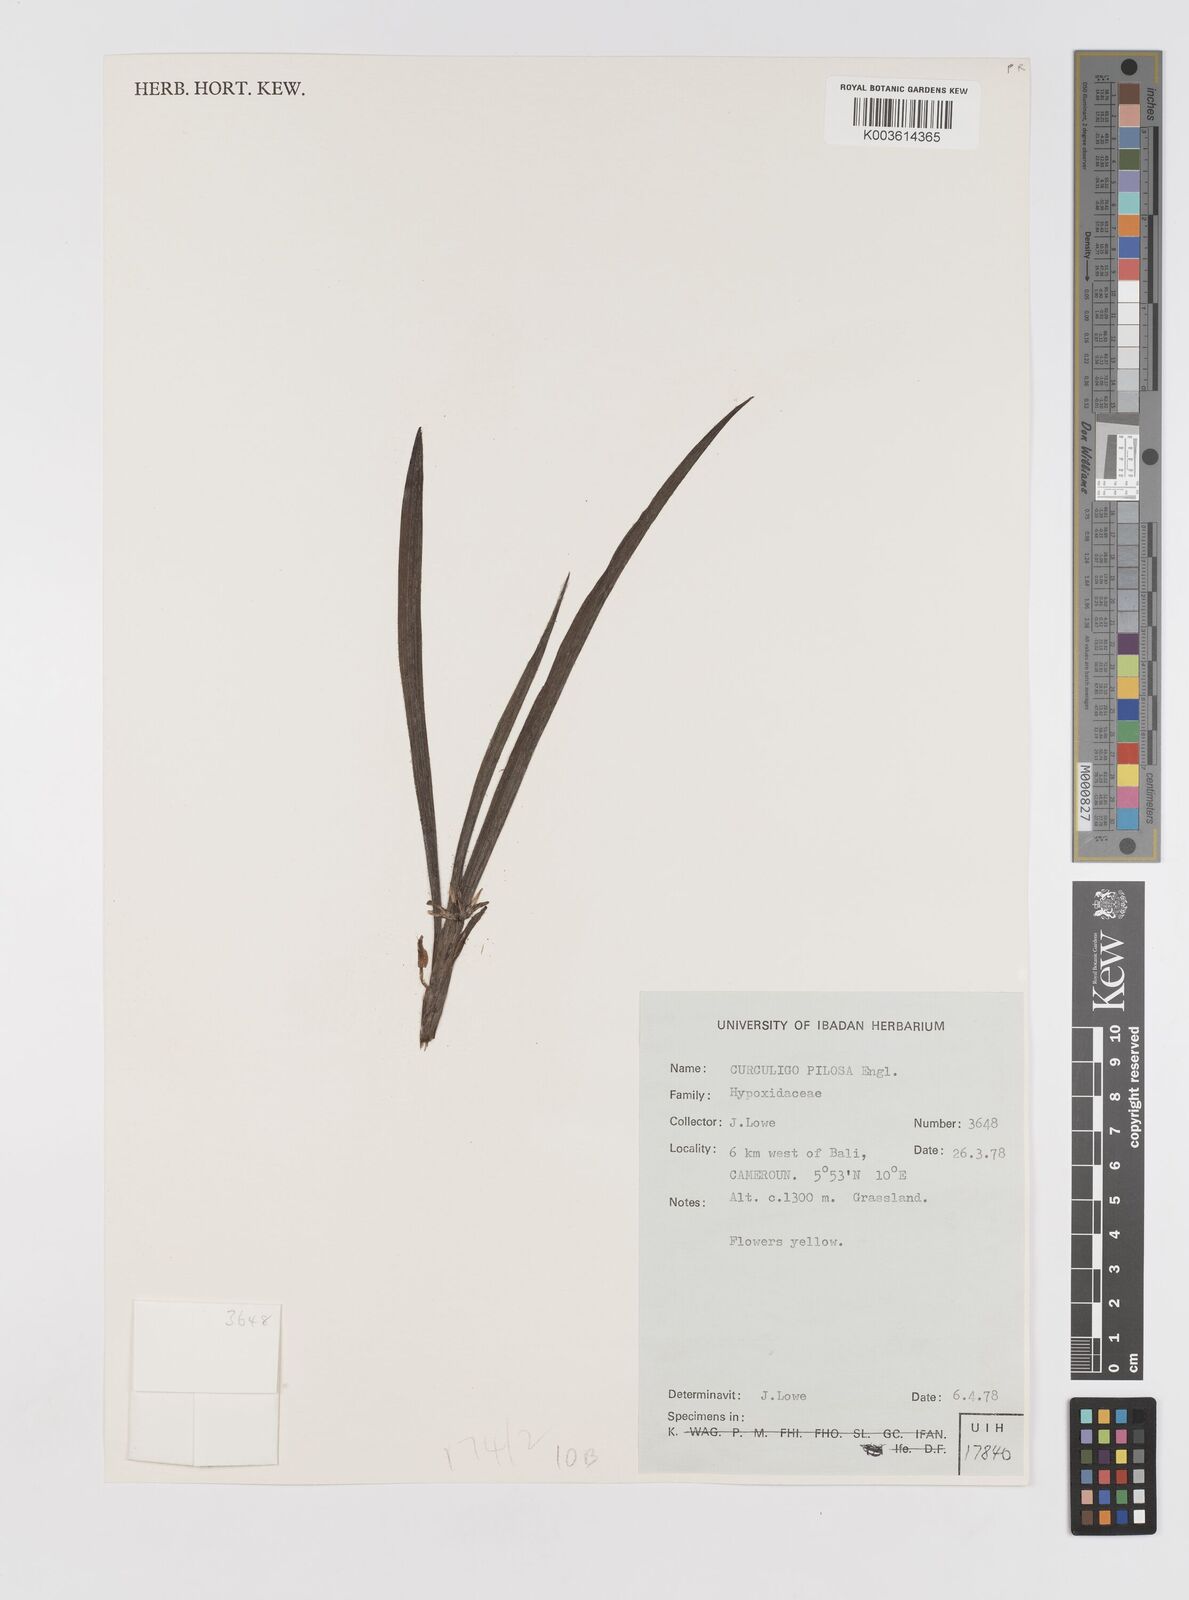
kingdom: Plantae
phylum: Tracheophyta
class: Liliopsida
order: Asparagales
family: Hypoxidaceae
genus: Curculigo
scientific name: Curculigo pilosa
